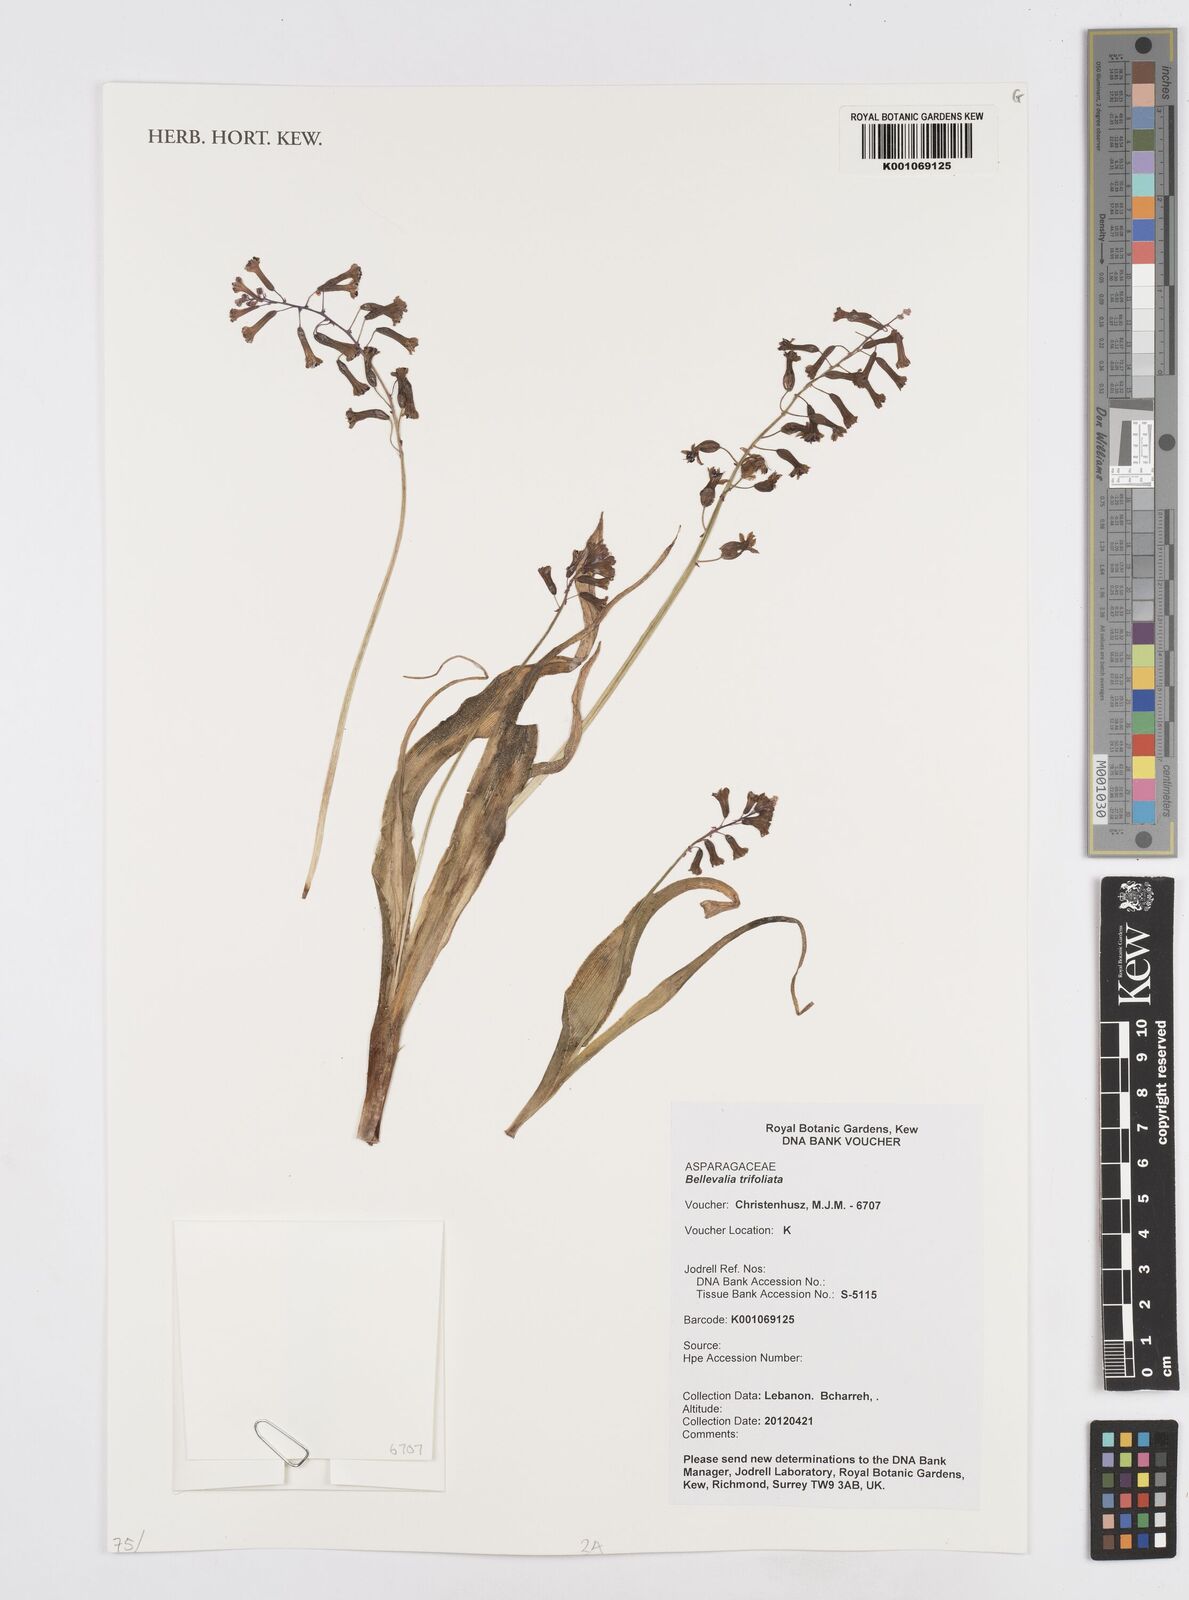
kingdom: Plantae
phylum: Tracheophyta
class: Liliopsida
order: Asparagales
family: Asparagaceae
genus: Bellevalia
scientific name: Bellevalia trifoliata
